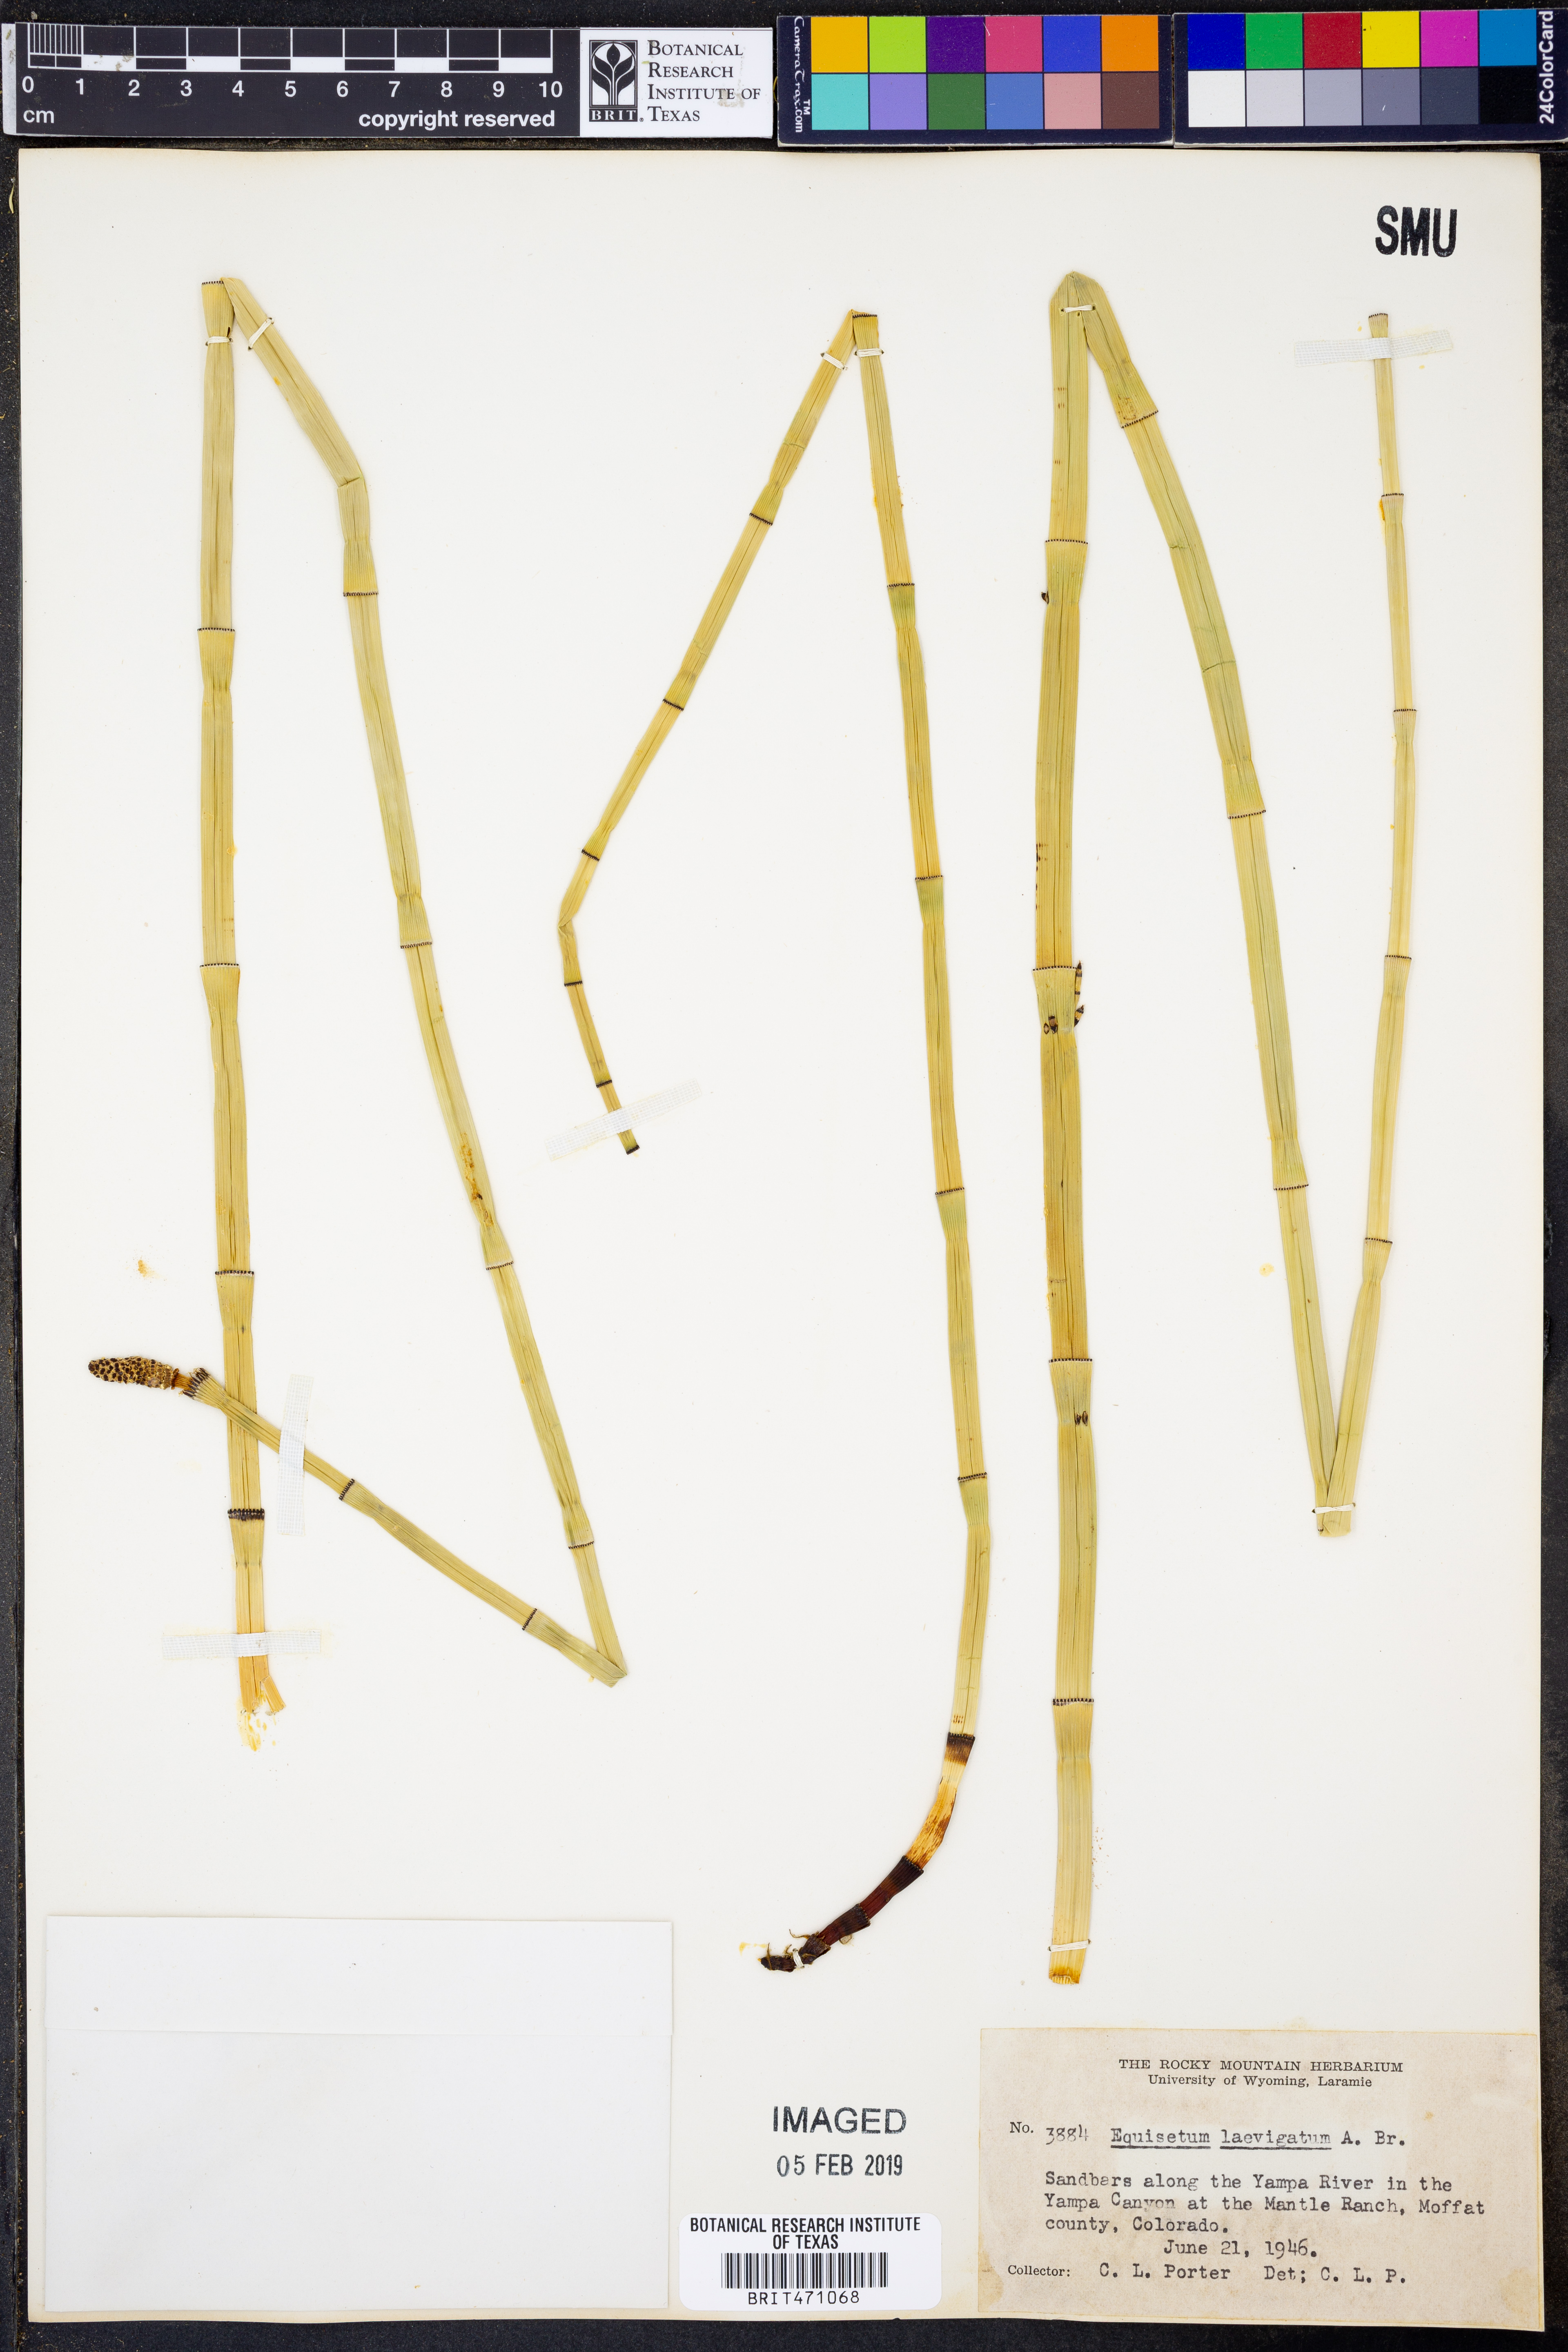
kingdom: Plantae
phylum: Tracheophyta
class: Polypodiopsida
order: Equisetales
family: Equisetaceae
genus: Equisetum
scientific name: Equisetum laevigatum
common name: Smooth scouring-rush
